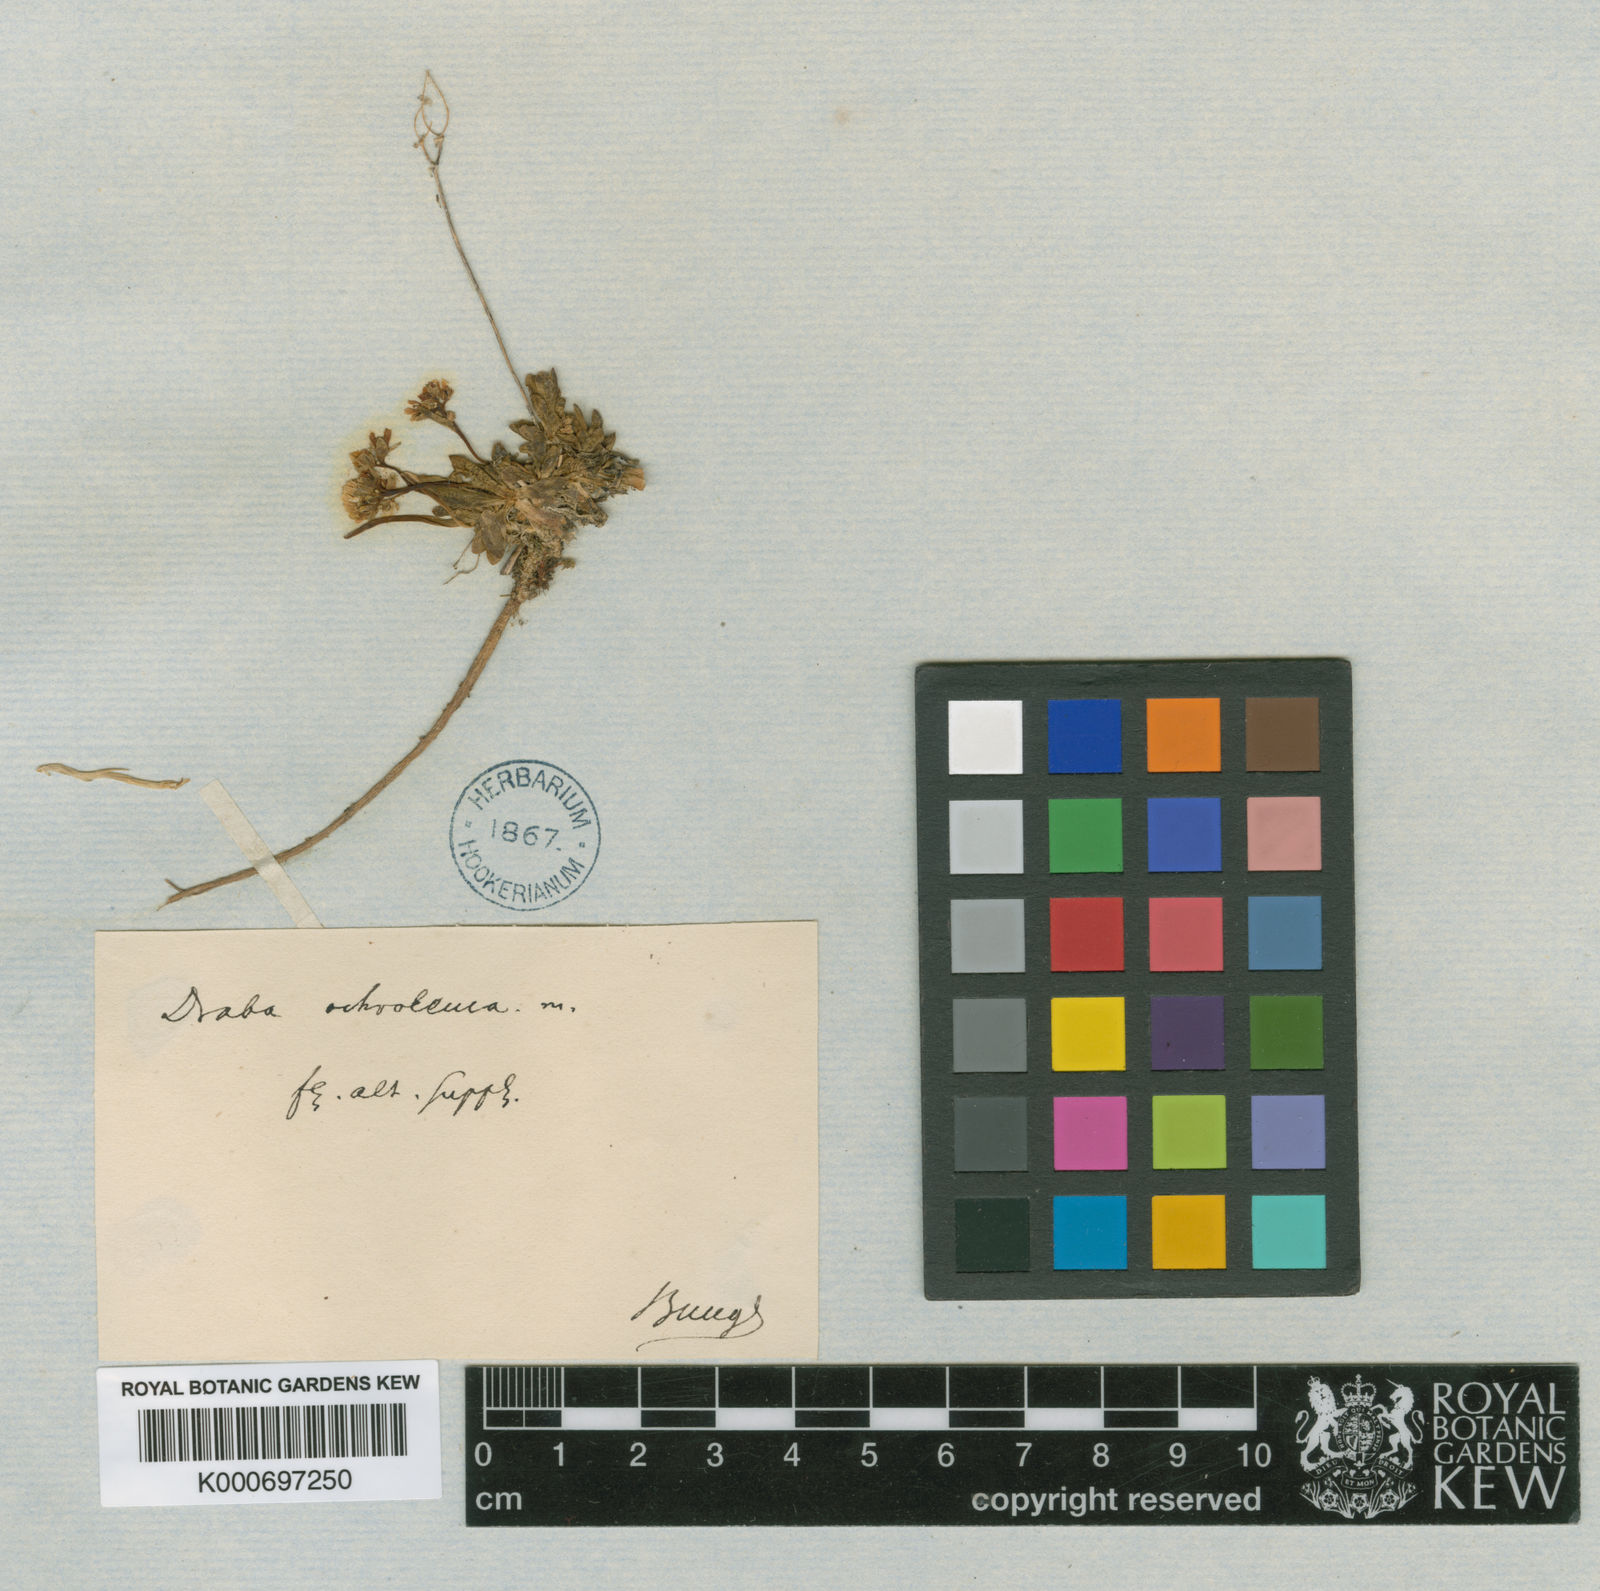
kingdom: Plantae
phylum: Tracheophyta
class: Magnoliopsida
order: Brassicales
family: Brassicaceae
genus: Draba
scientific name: Draba ochroleuca
